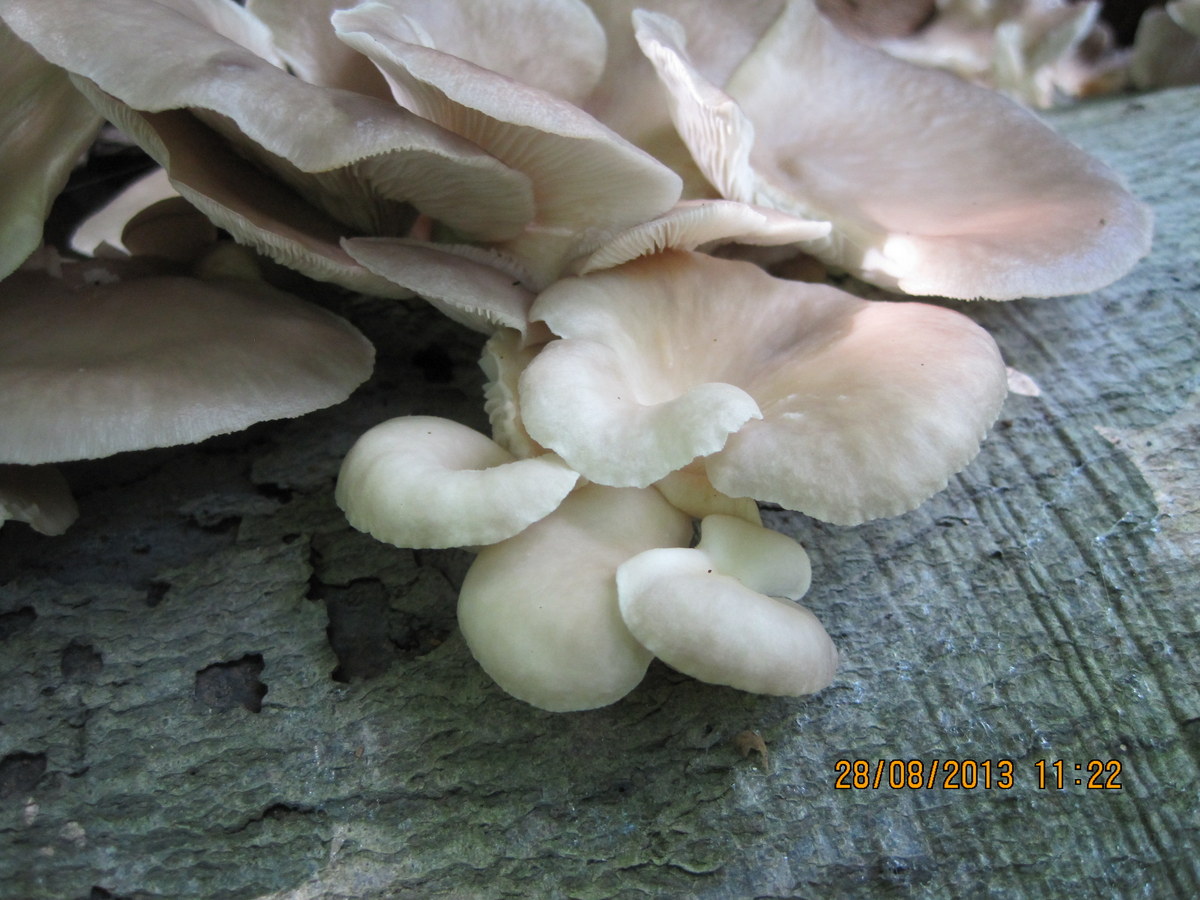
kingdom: Fungi
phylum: Basidiomycota
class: Agaricomycetes
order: Agaricales
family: Pleurotaceae
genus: Pleurotus
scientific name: Pleurotus pulmonarius
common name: sommer-østershat
